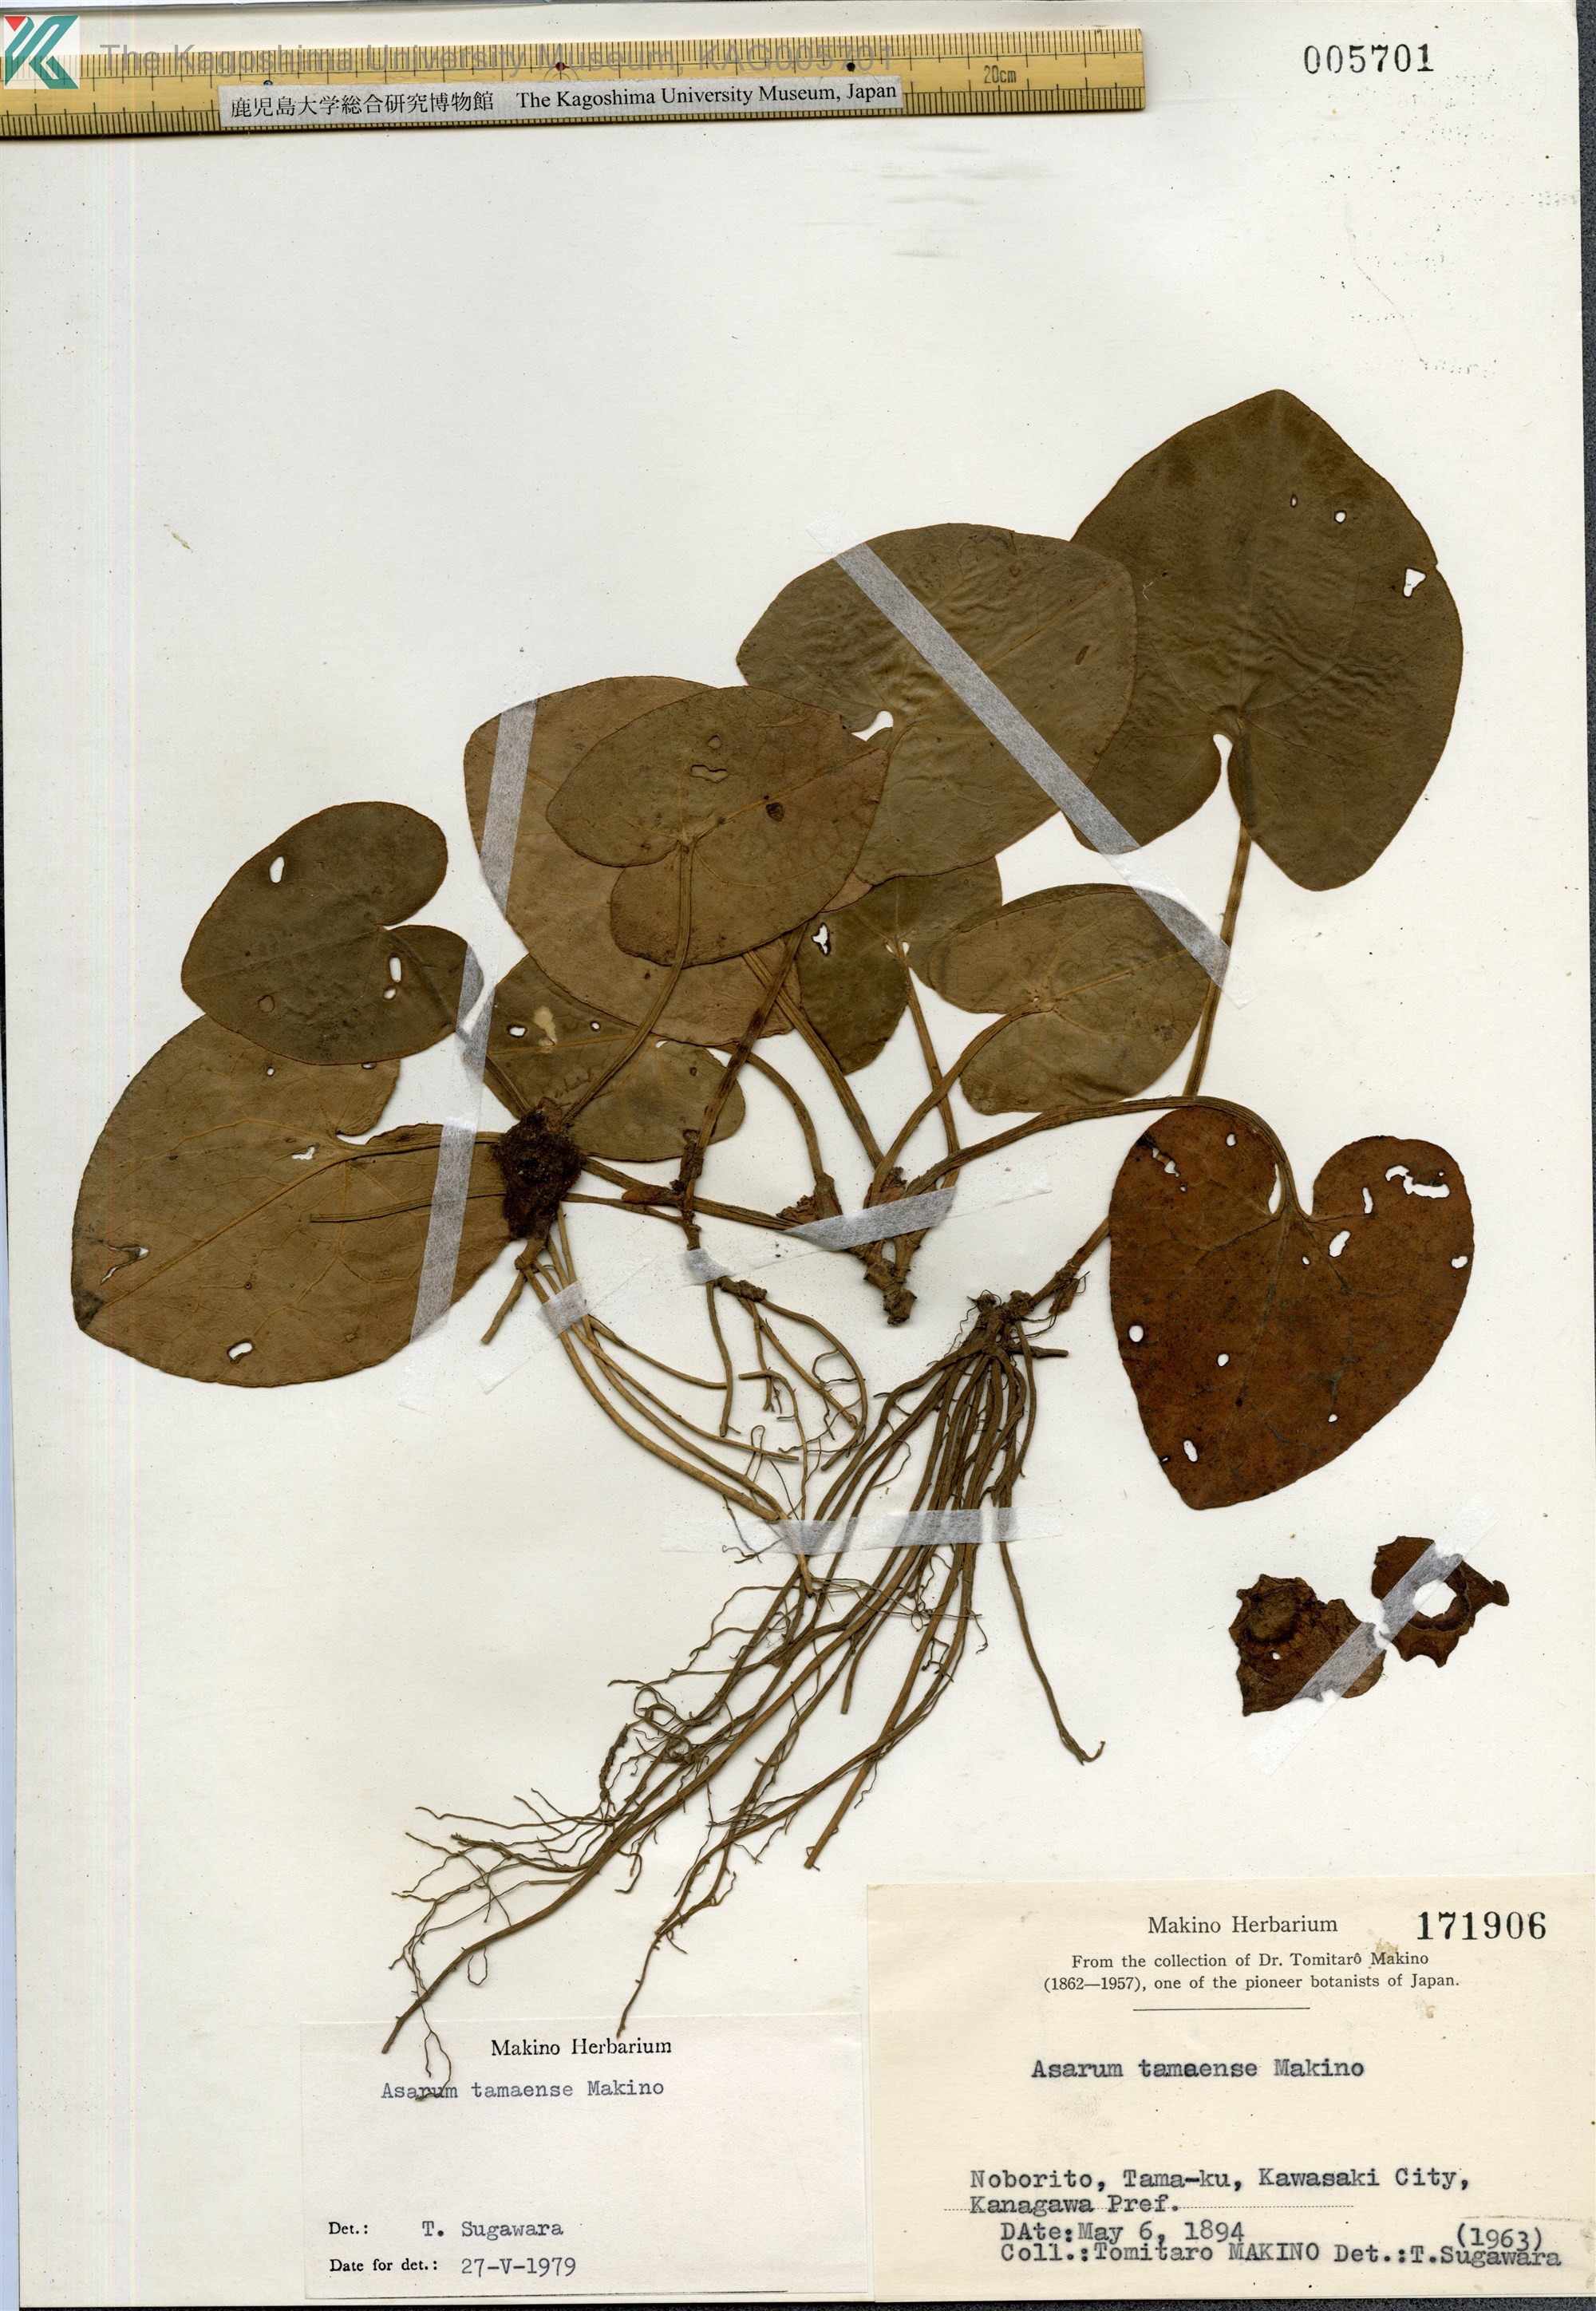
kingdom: Plantae
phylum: Tracheophyta
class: Magnoliopsida
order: Piperales
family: Aristolochiaceae
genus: Asarum
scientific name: Asarum tamaense
